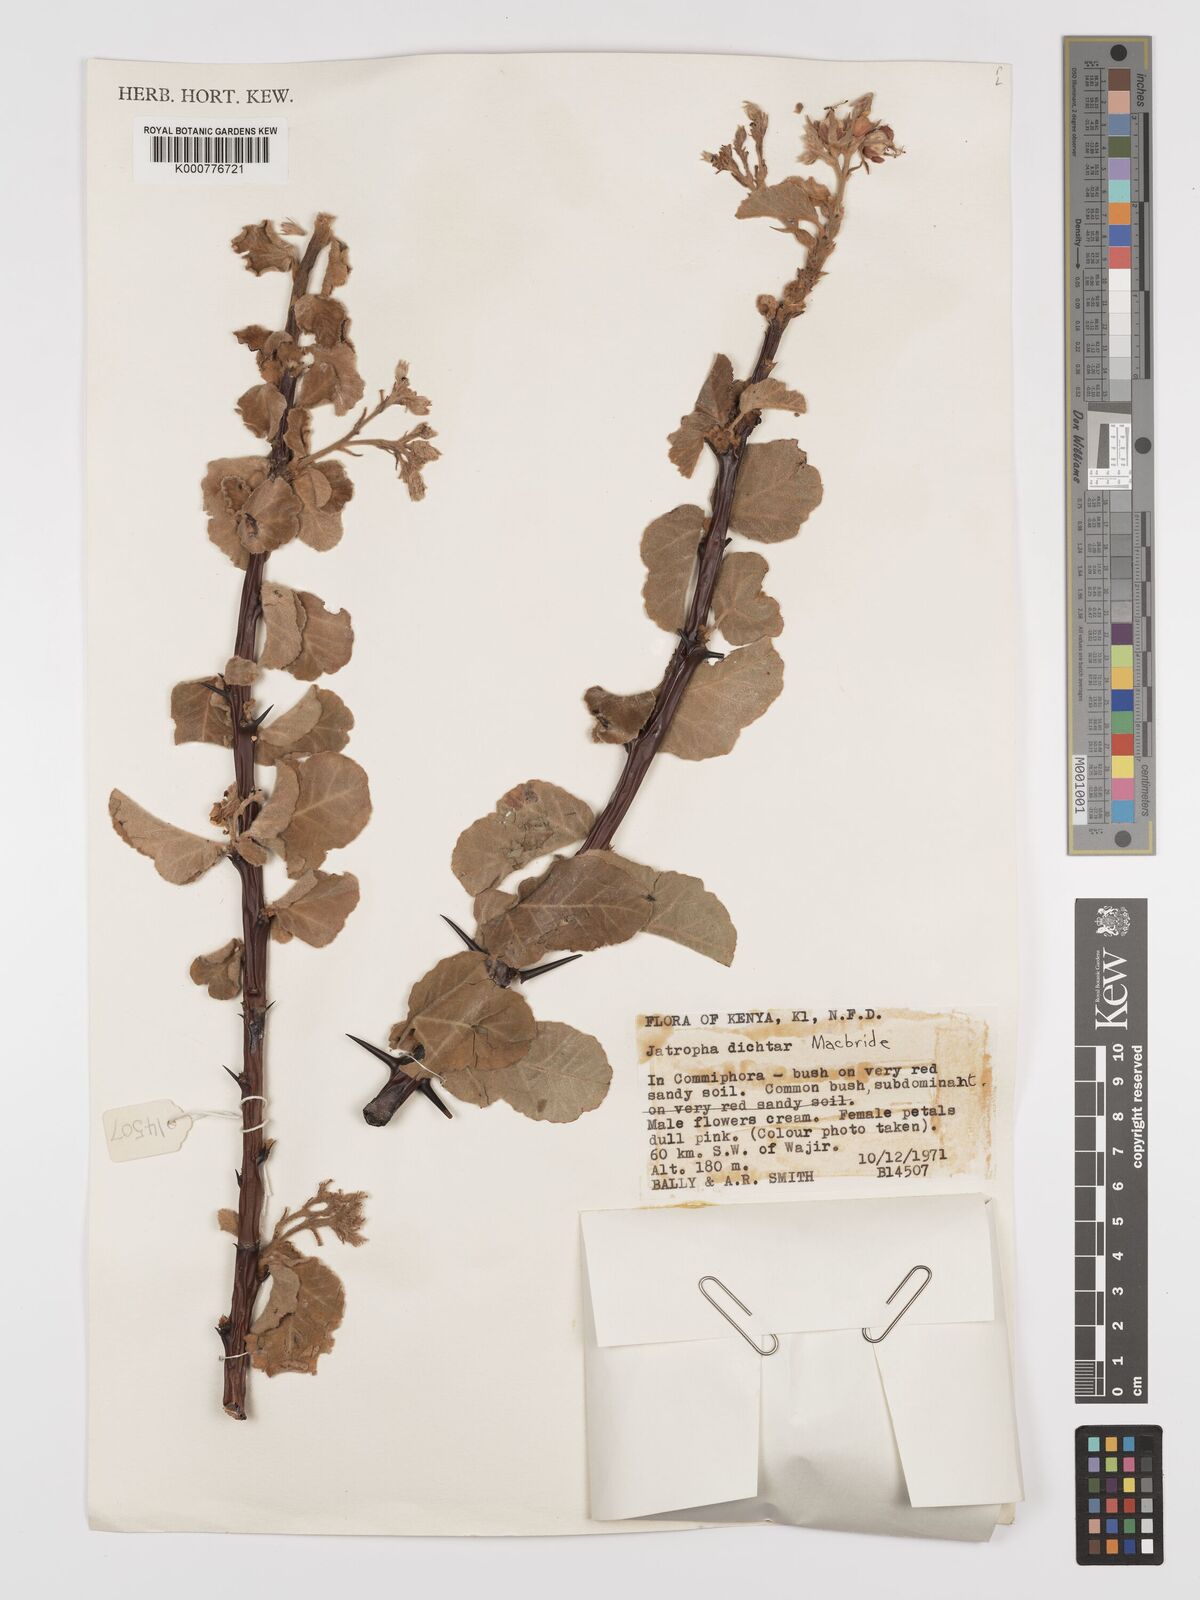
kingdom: Plantae
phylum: Tracheophyta
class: Magnoliopsida
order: Malpighiales
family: Euphorbiaceae
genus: Jatropha
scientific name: Jatropha dichtar
